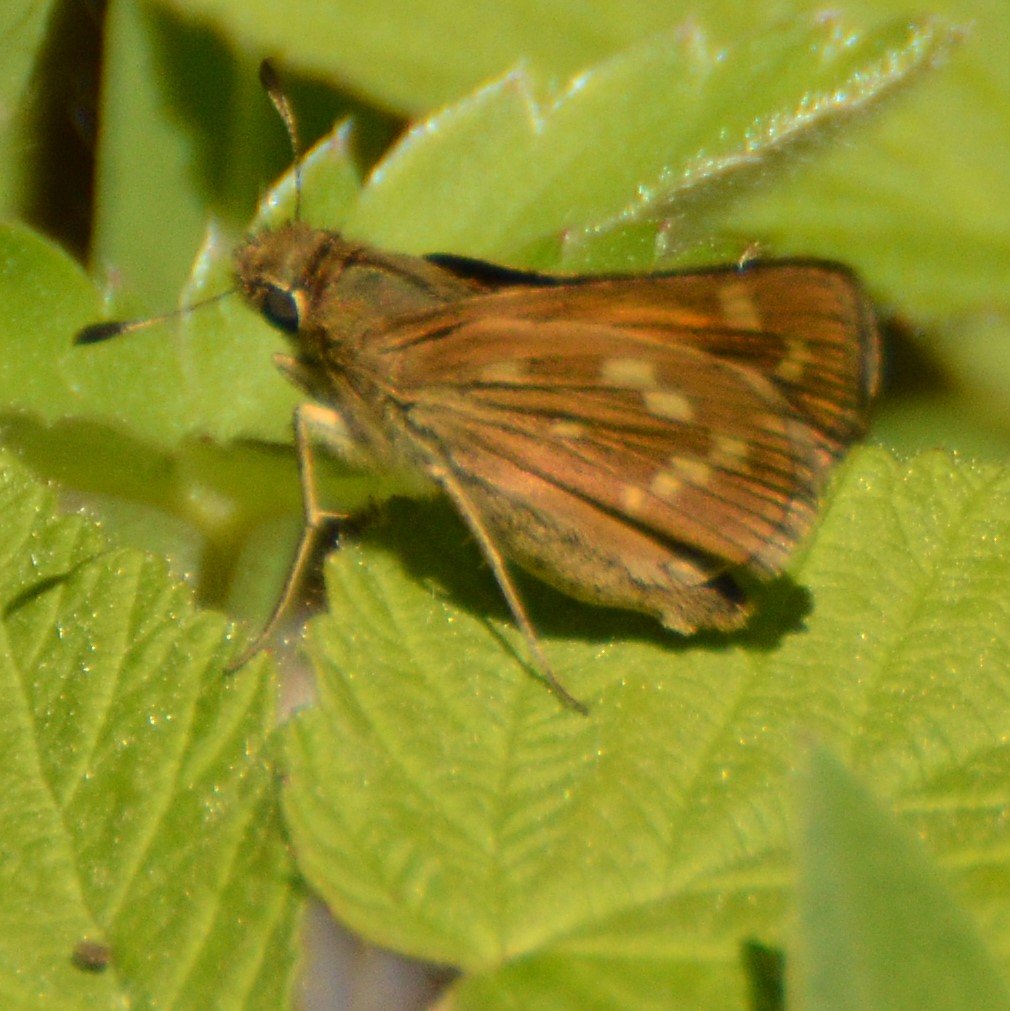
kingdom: Animalia
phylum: Arthropoda
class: Insecta
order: Lepidoptera
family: Hesperiidae
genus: Hesperia
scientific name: Hesperia sassacus
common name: Sassacus Skipper
